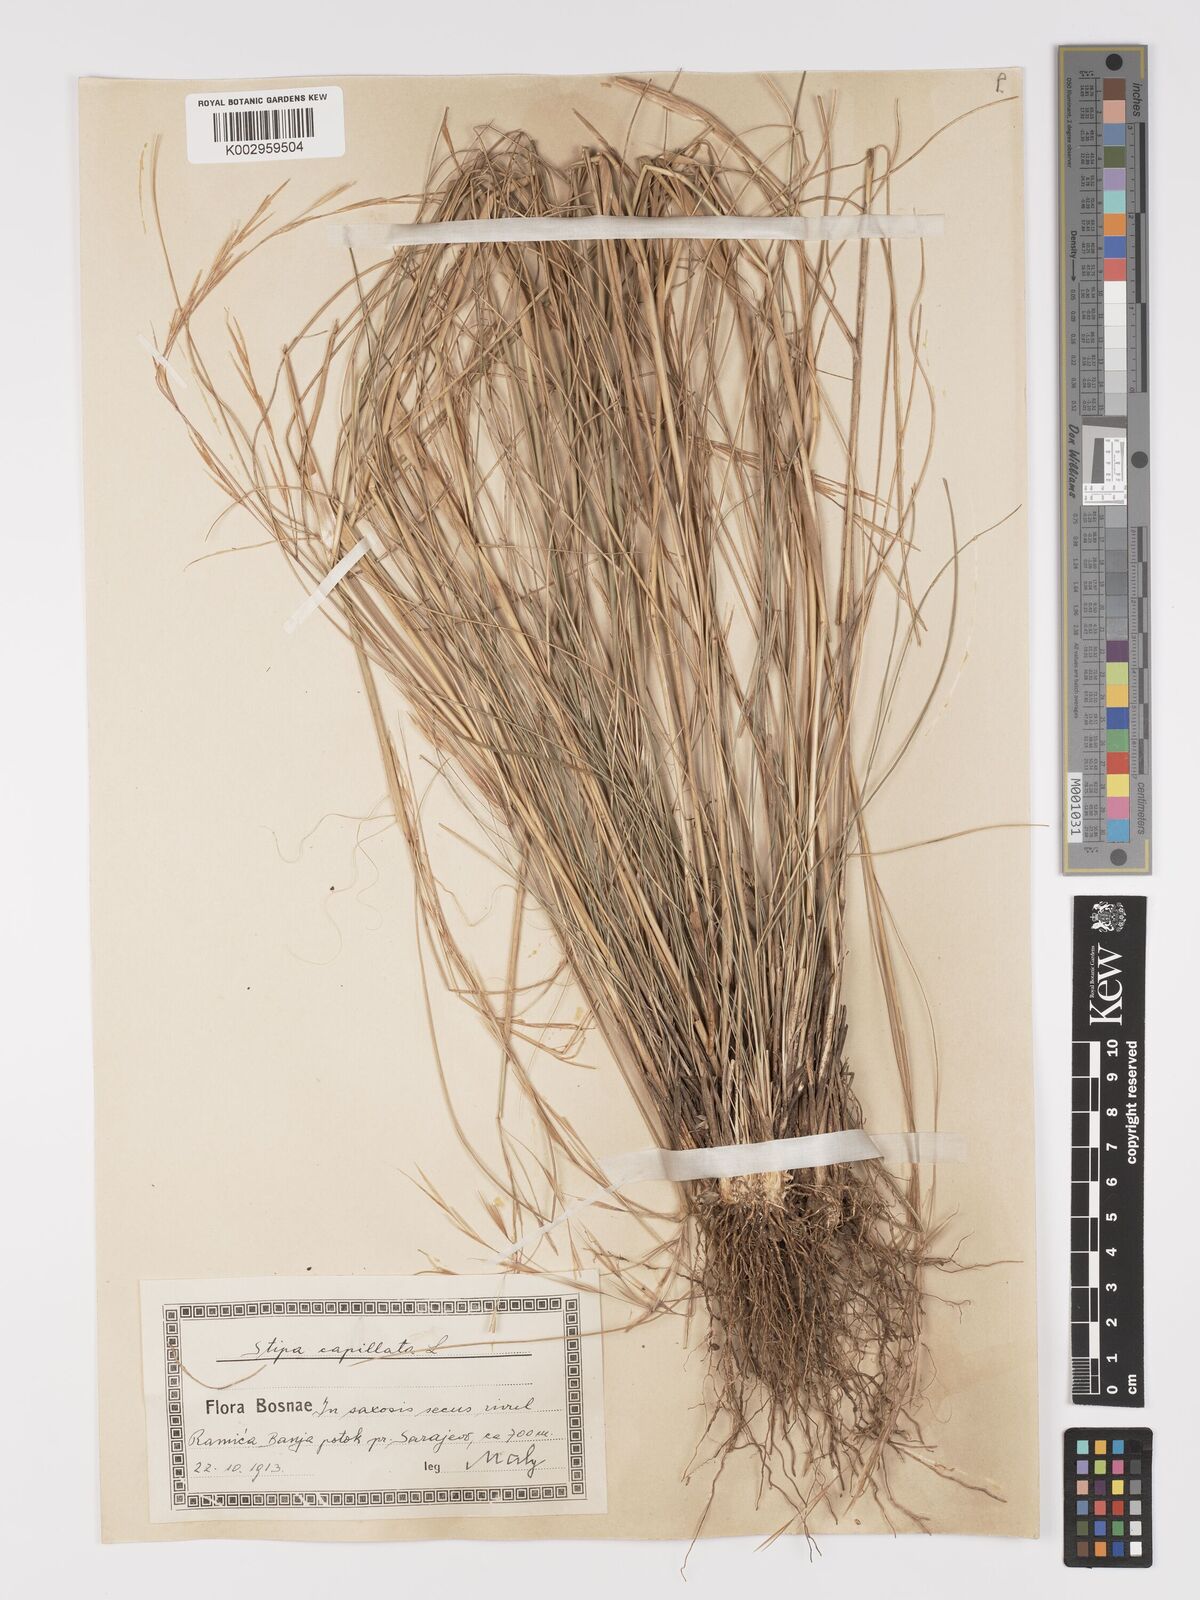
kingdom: Plantae
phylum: Tracheophyta
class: Liliopsida
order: Poales
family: Poaceae
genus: Stipa
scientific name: Stipa capillata
